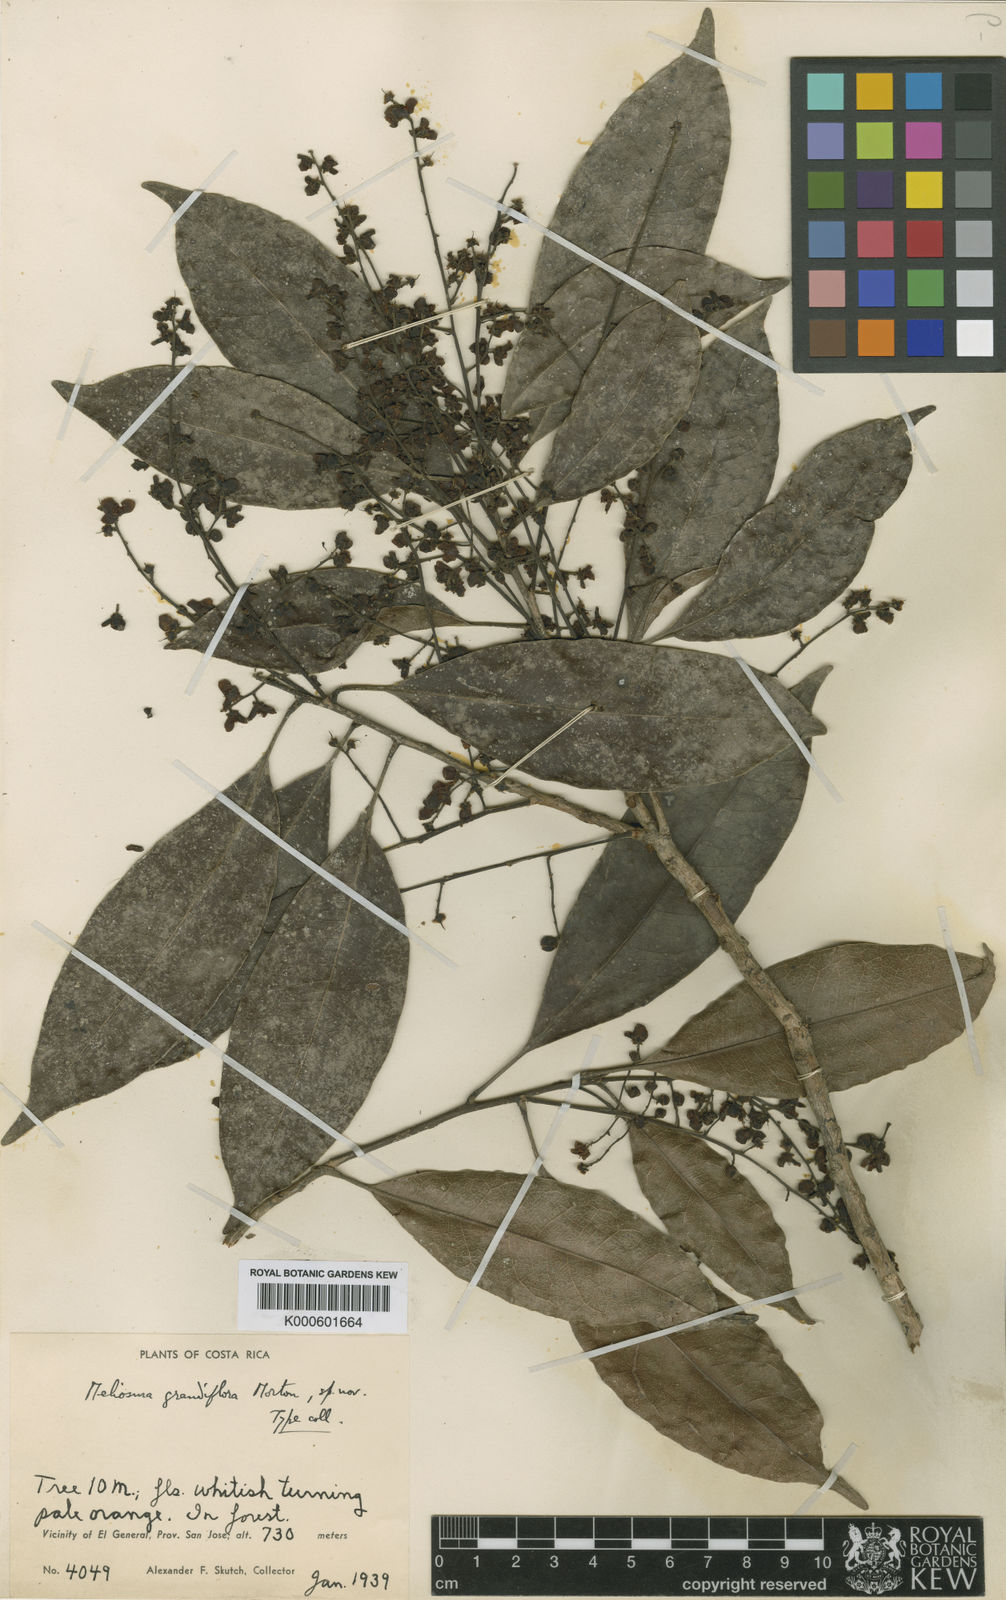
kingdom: Plantae
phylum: Tracheophyta
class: Magnoliopsida
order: Proteales
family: Sabiaceae
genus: Meliosma
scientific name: Meliosma grandiflora
